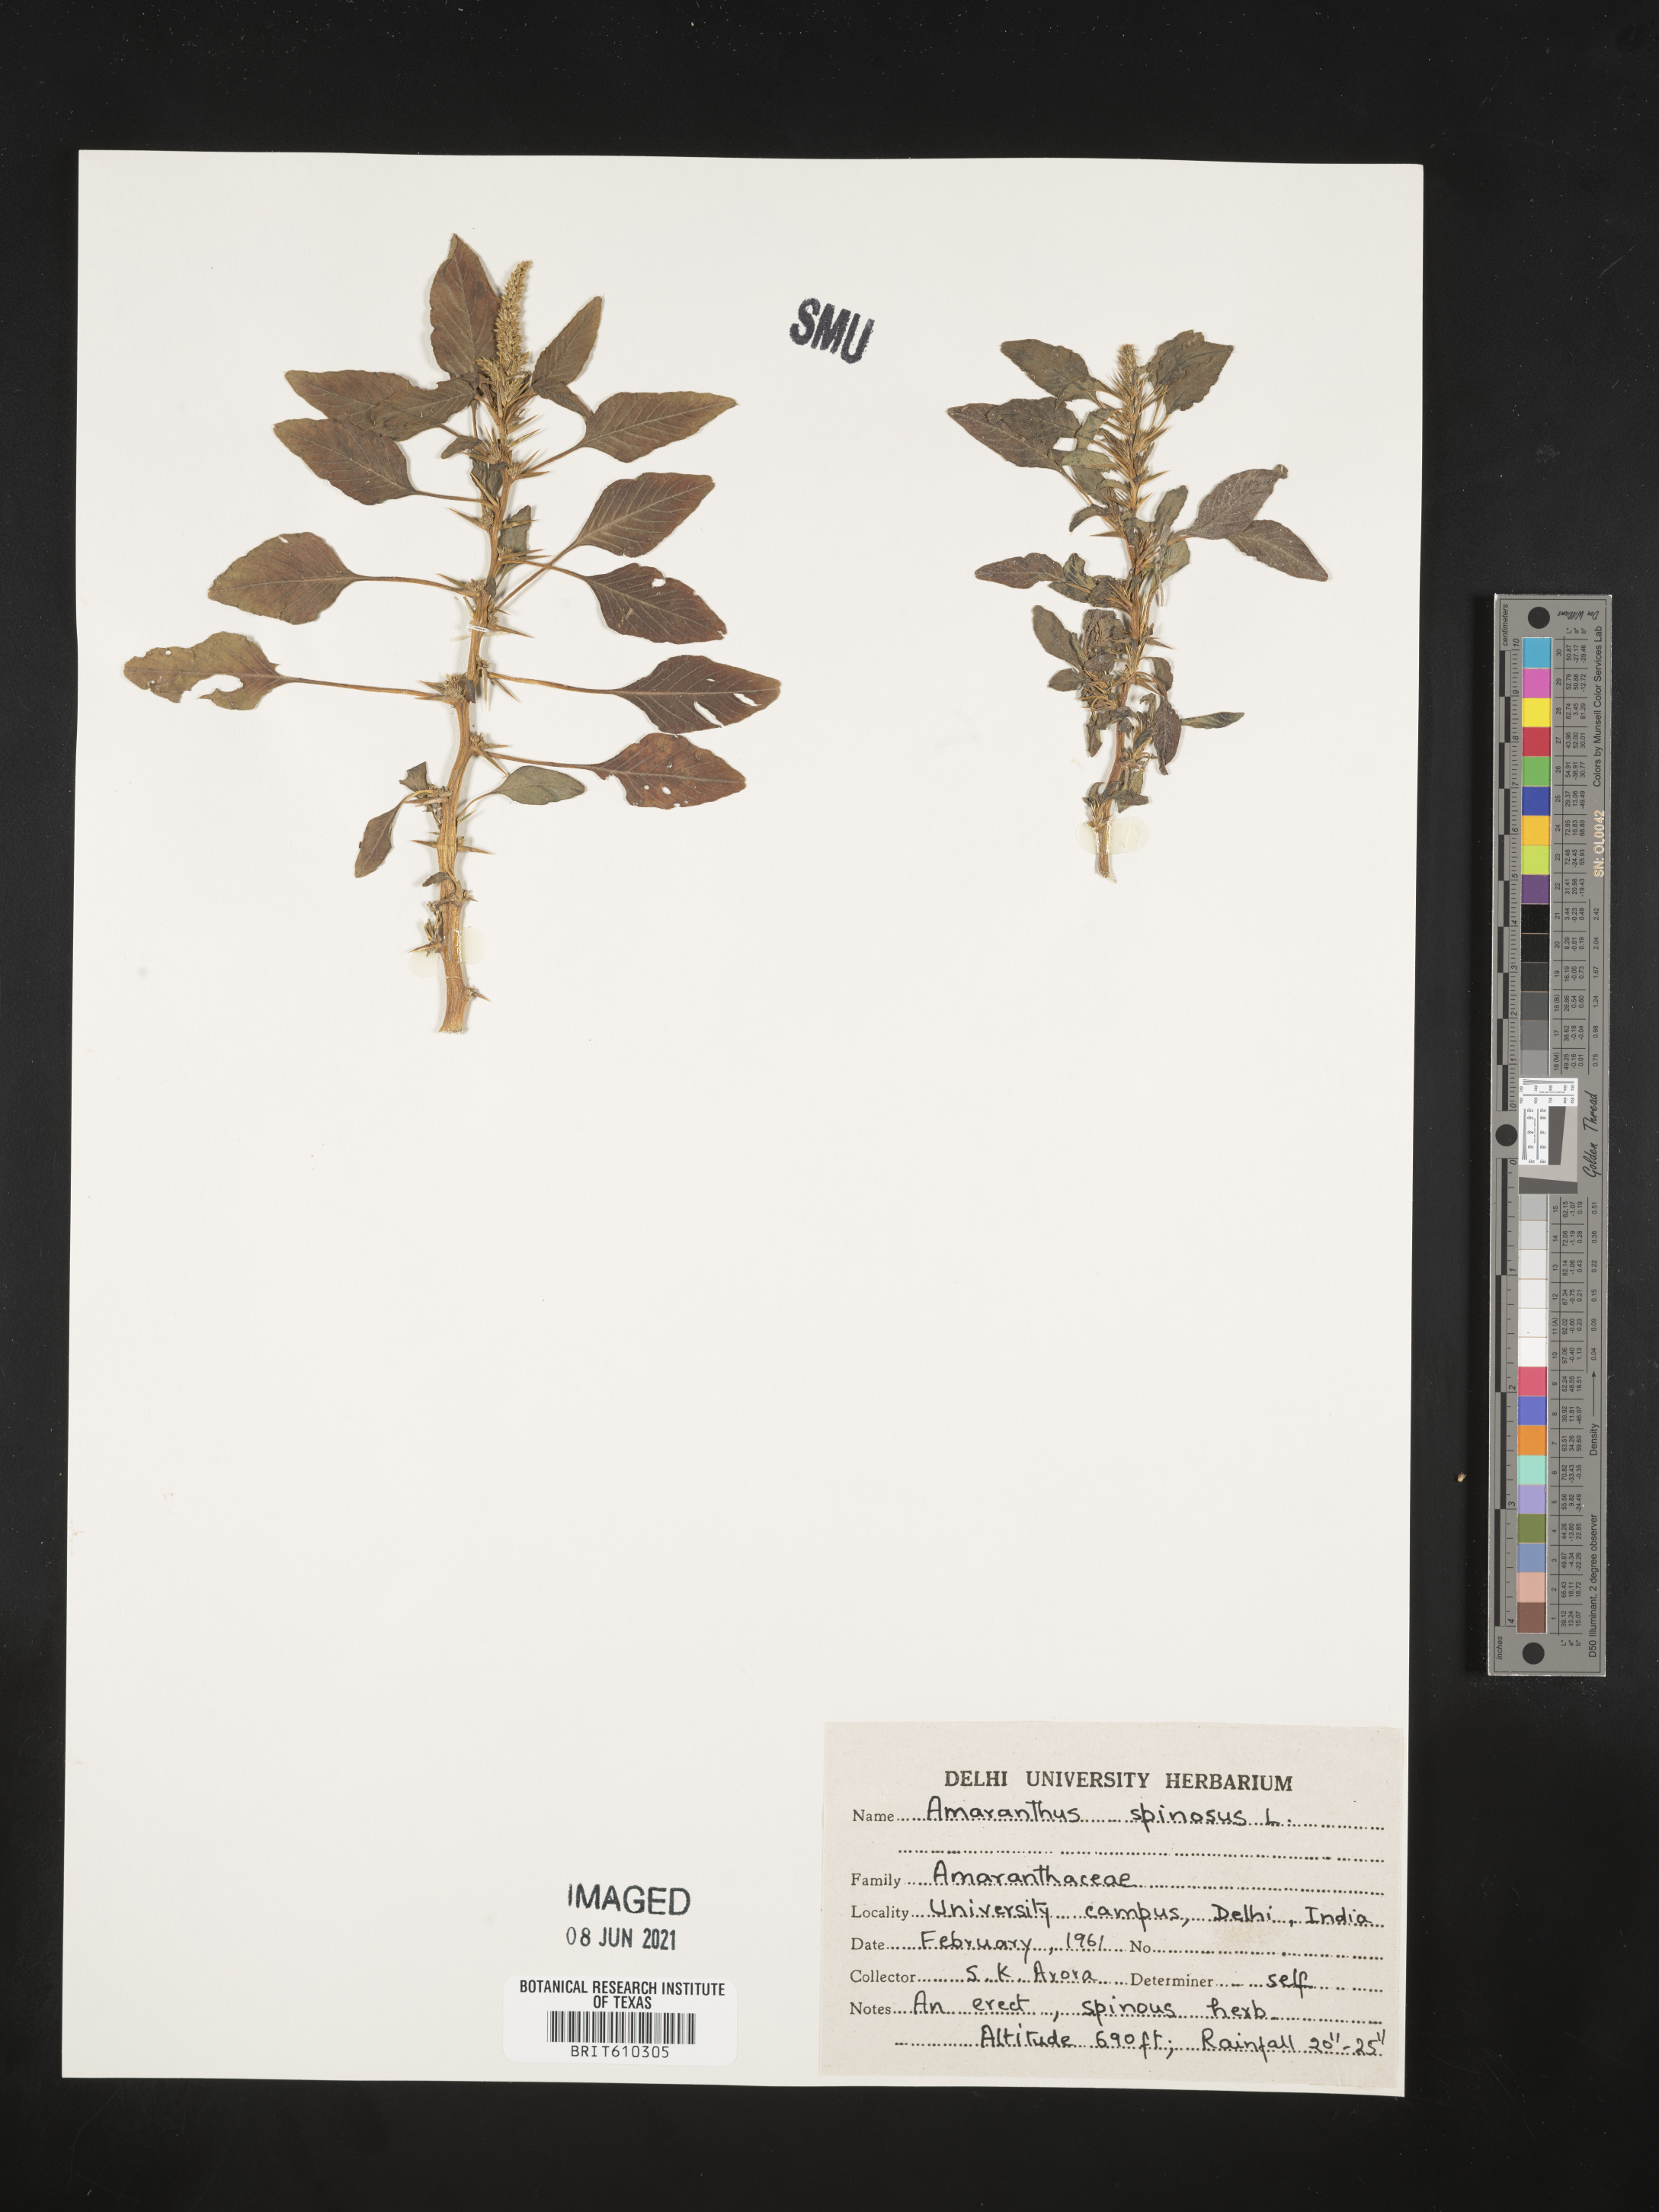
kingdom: Plantae
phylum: Tracheophyta
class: Magnoliopsida
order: Caryophyllales
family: Amaranthaceae
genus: Amaranthus
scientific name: Amaranthus spinosus
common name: Spiny amaranth
